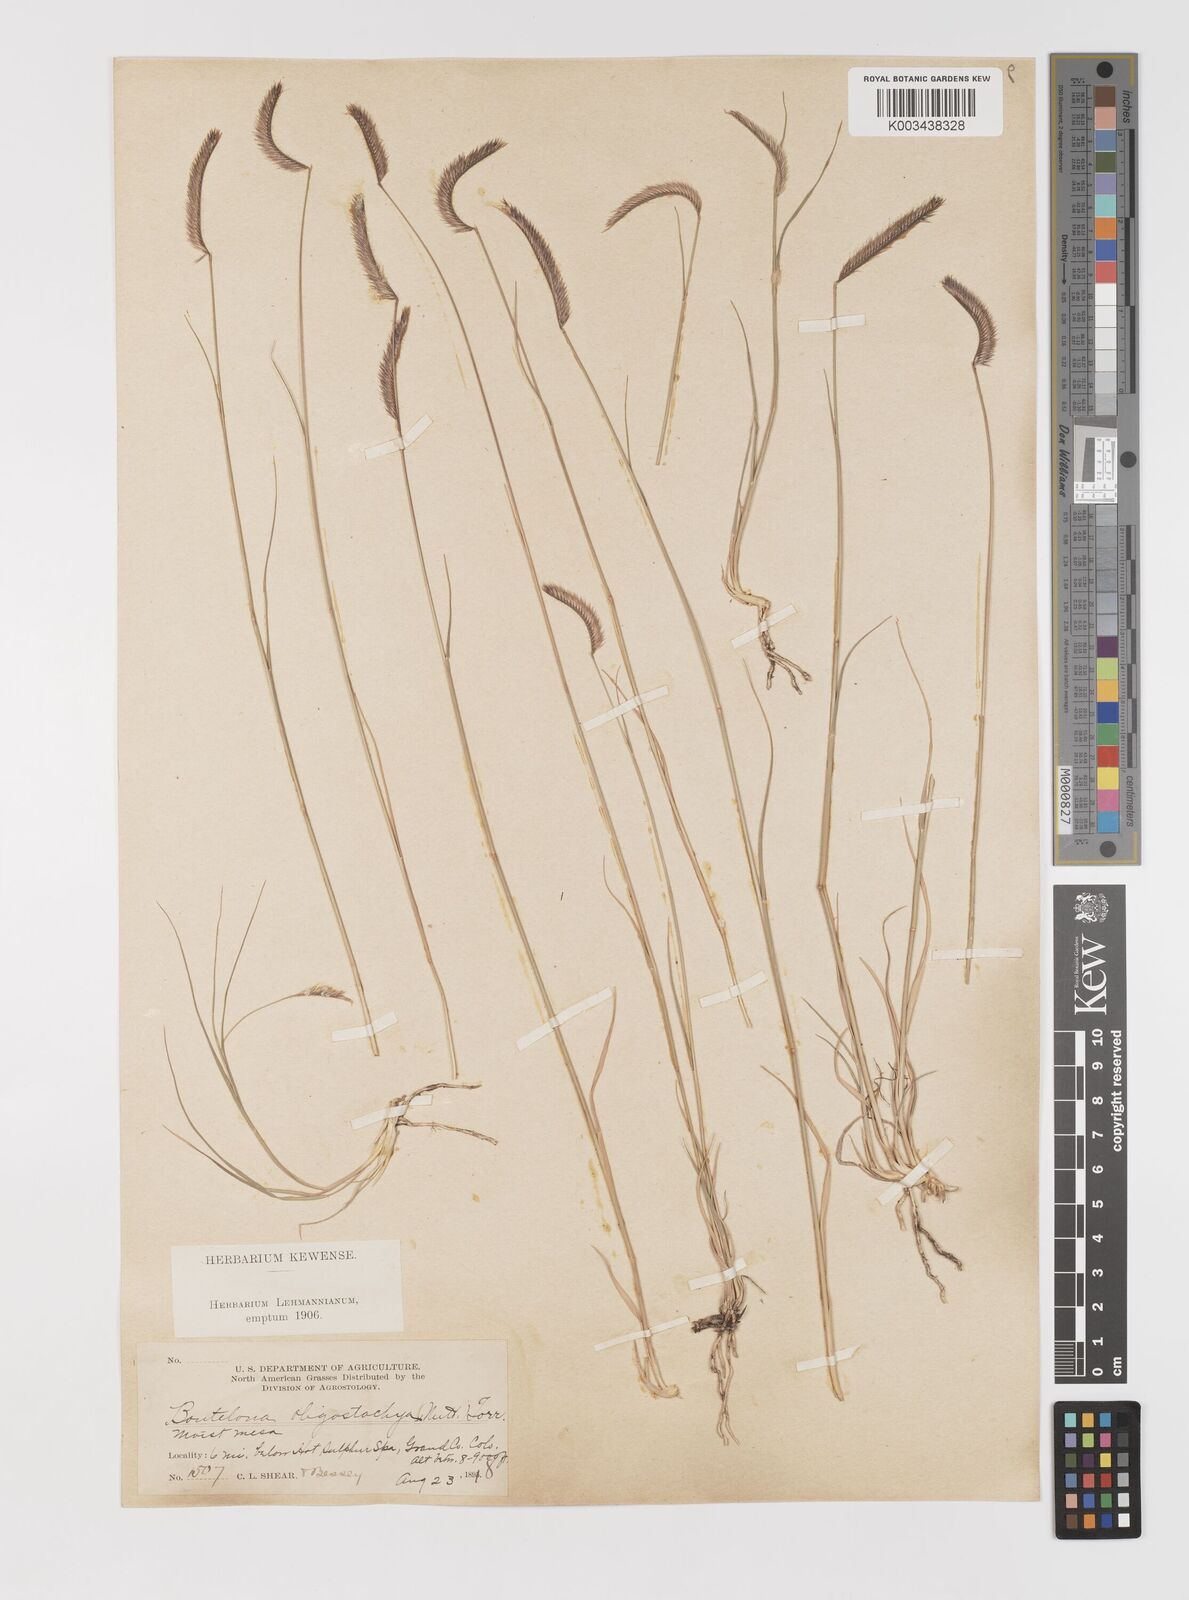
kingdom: Plantae
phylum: Tracheophyta
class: Liliopsida
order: Poales
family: Poaceae
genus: Bouteloua
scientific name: Bouteloua
